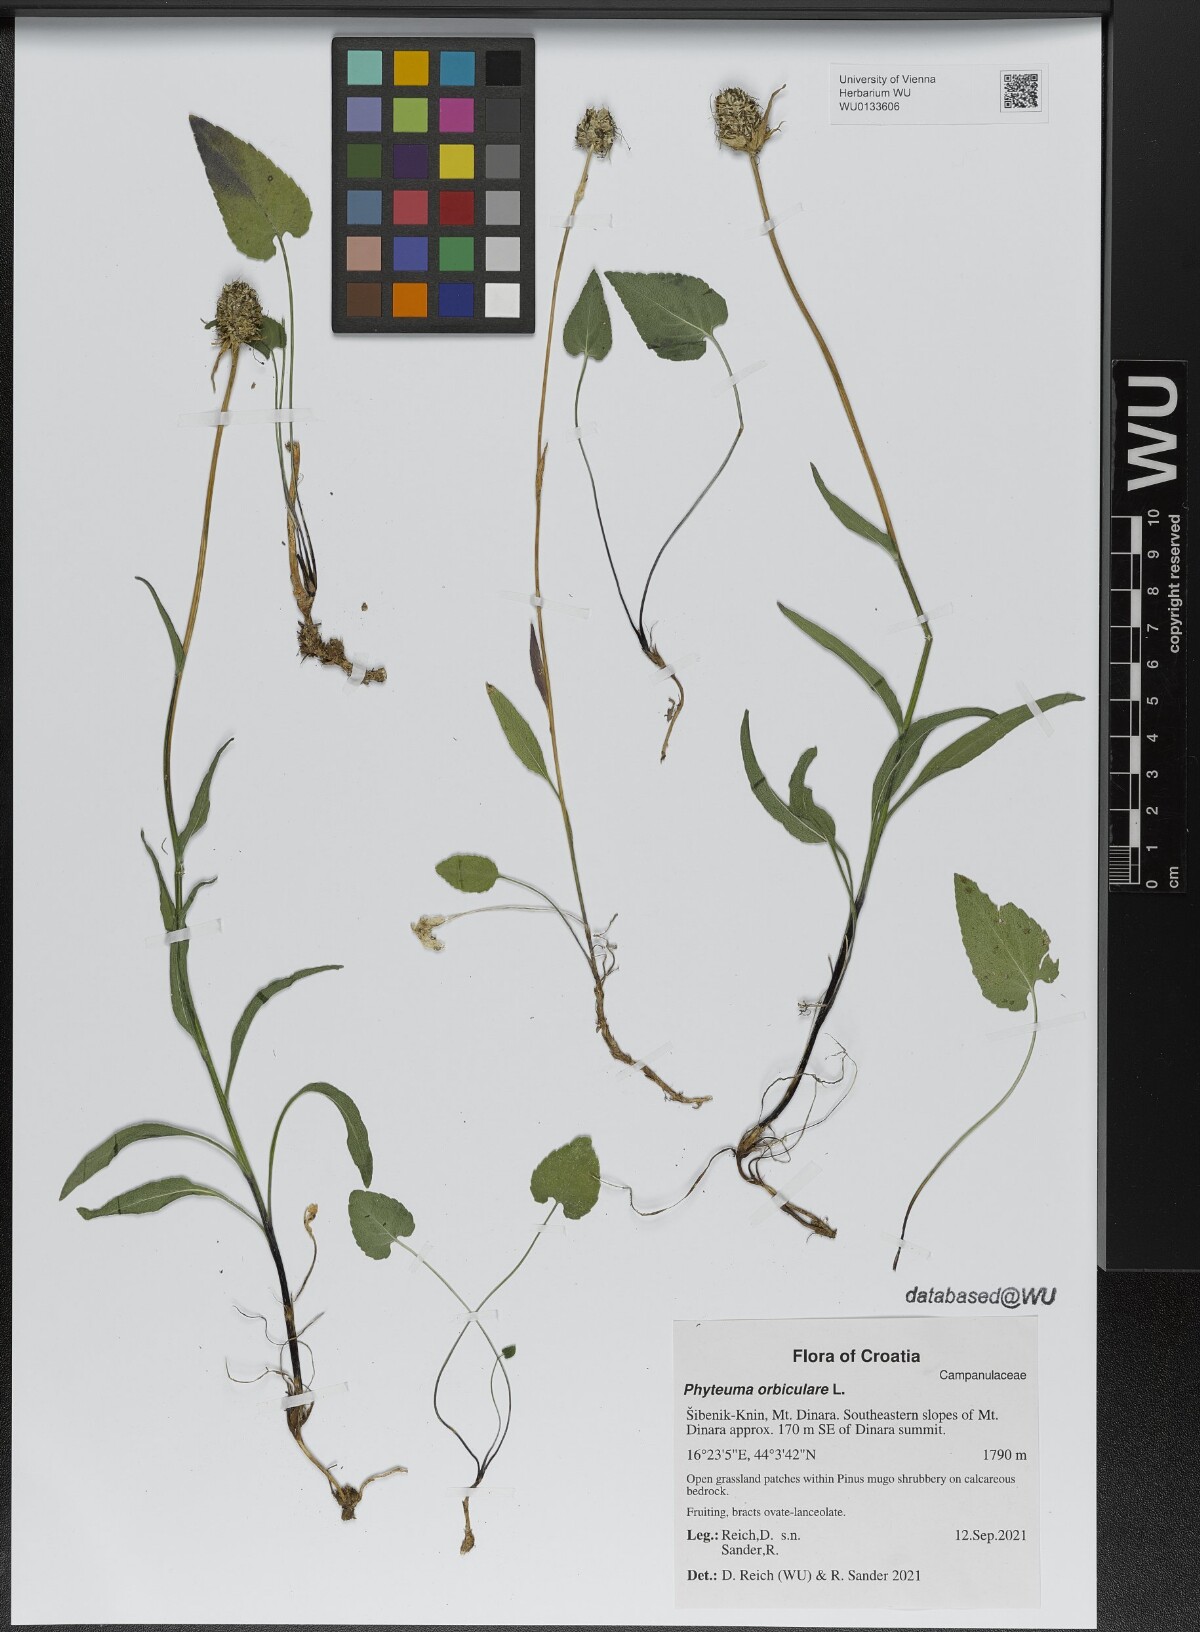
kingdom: Plantae
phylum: Tracheophyta
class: Magnoliopsida
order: Asterales
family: Campanulaceae
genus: Phyteuma
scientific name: Phyteuma orbiculare
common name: Round-headed rampion
